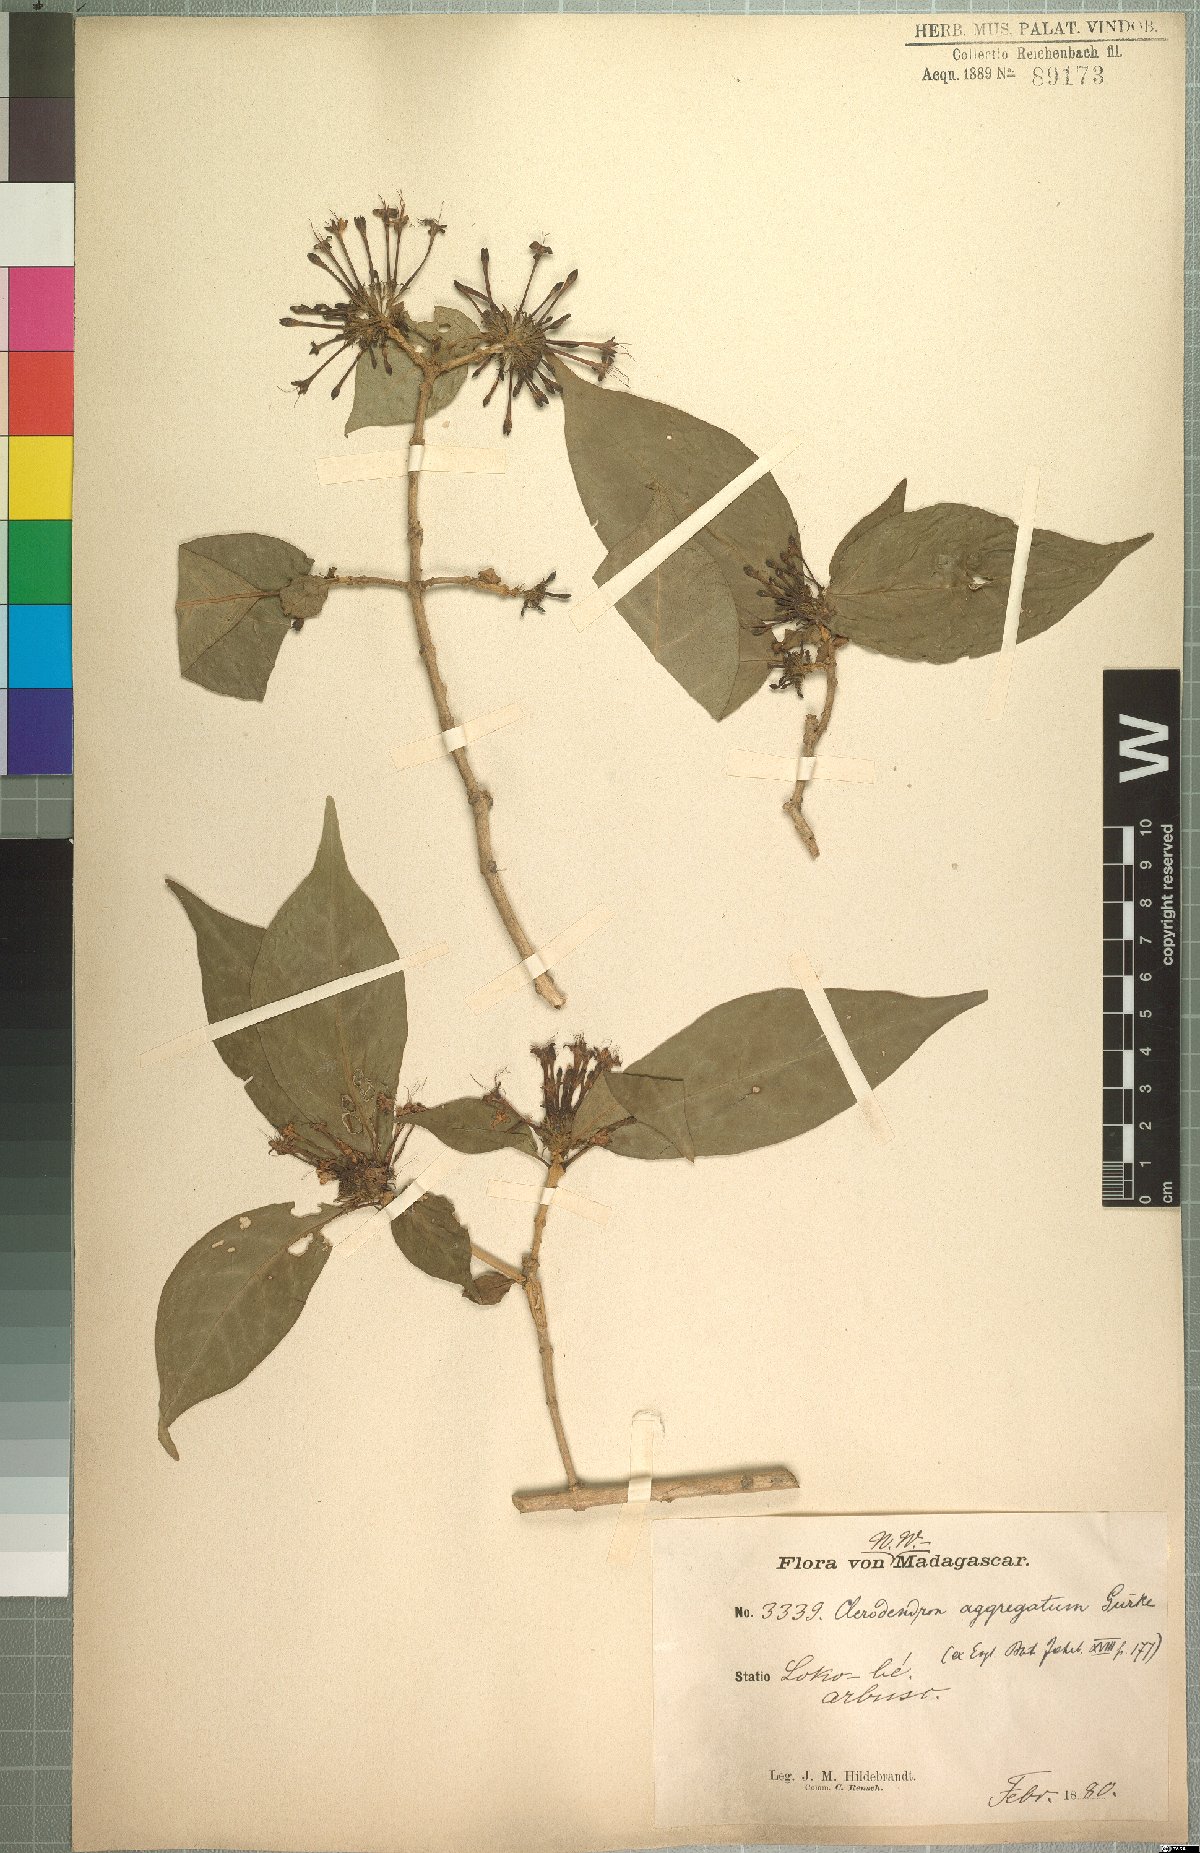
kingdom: Plantae
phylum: Tracheophyta
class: Magnoliopsida
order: Lamiales
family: Lamiaceae
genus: Volkameria
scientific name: Volkameria aggregata
